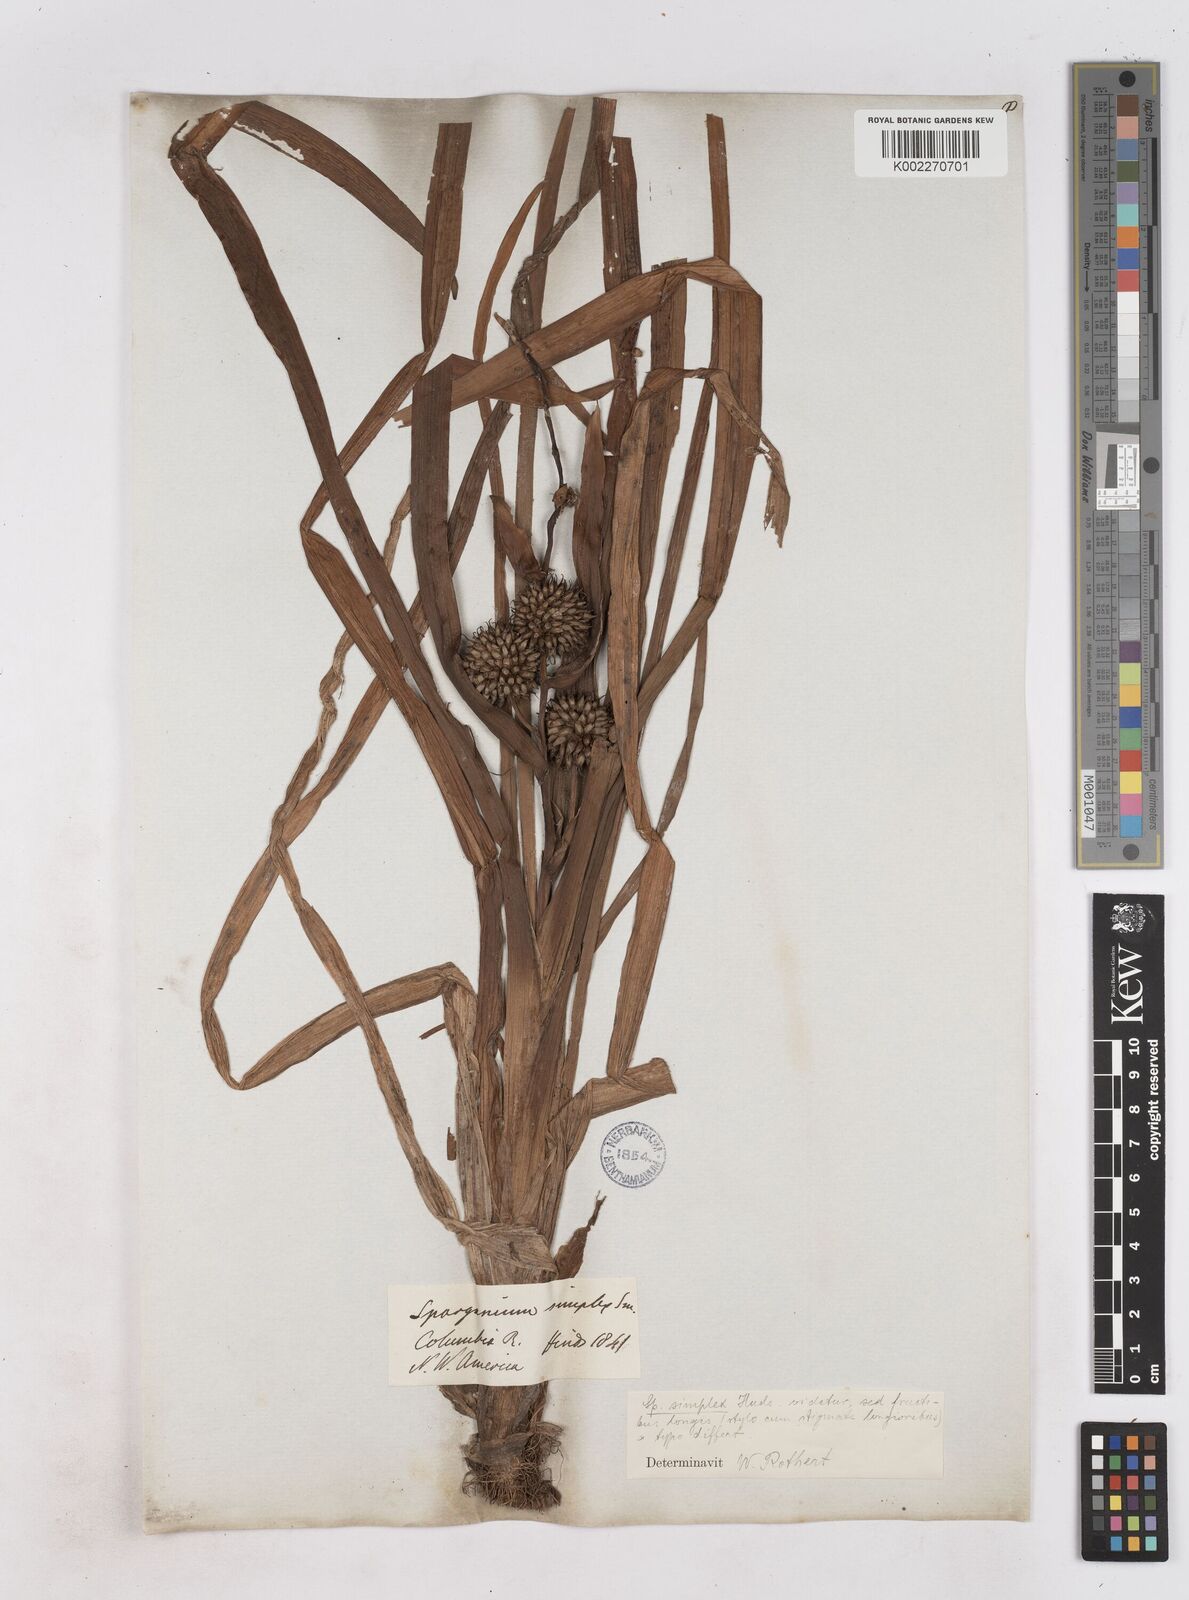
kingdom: Plantae
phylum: Tracheophyta
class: Liliopsida
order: Poales
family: Typhaceae
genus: Sparganium
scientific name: Sparganium emersum
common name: Unbranched bur-reed
